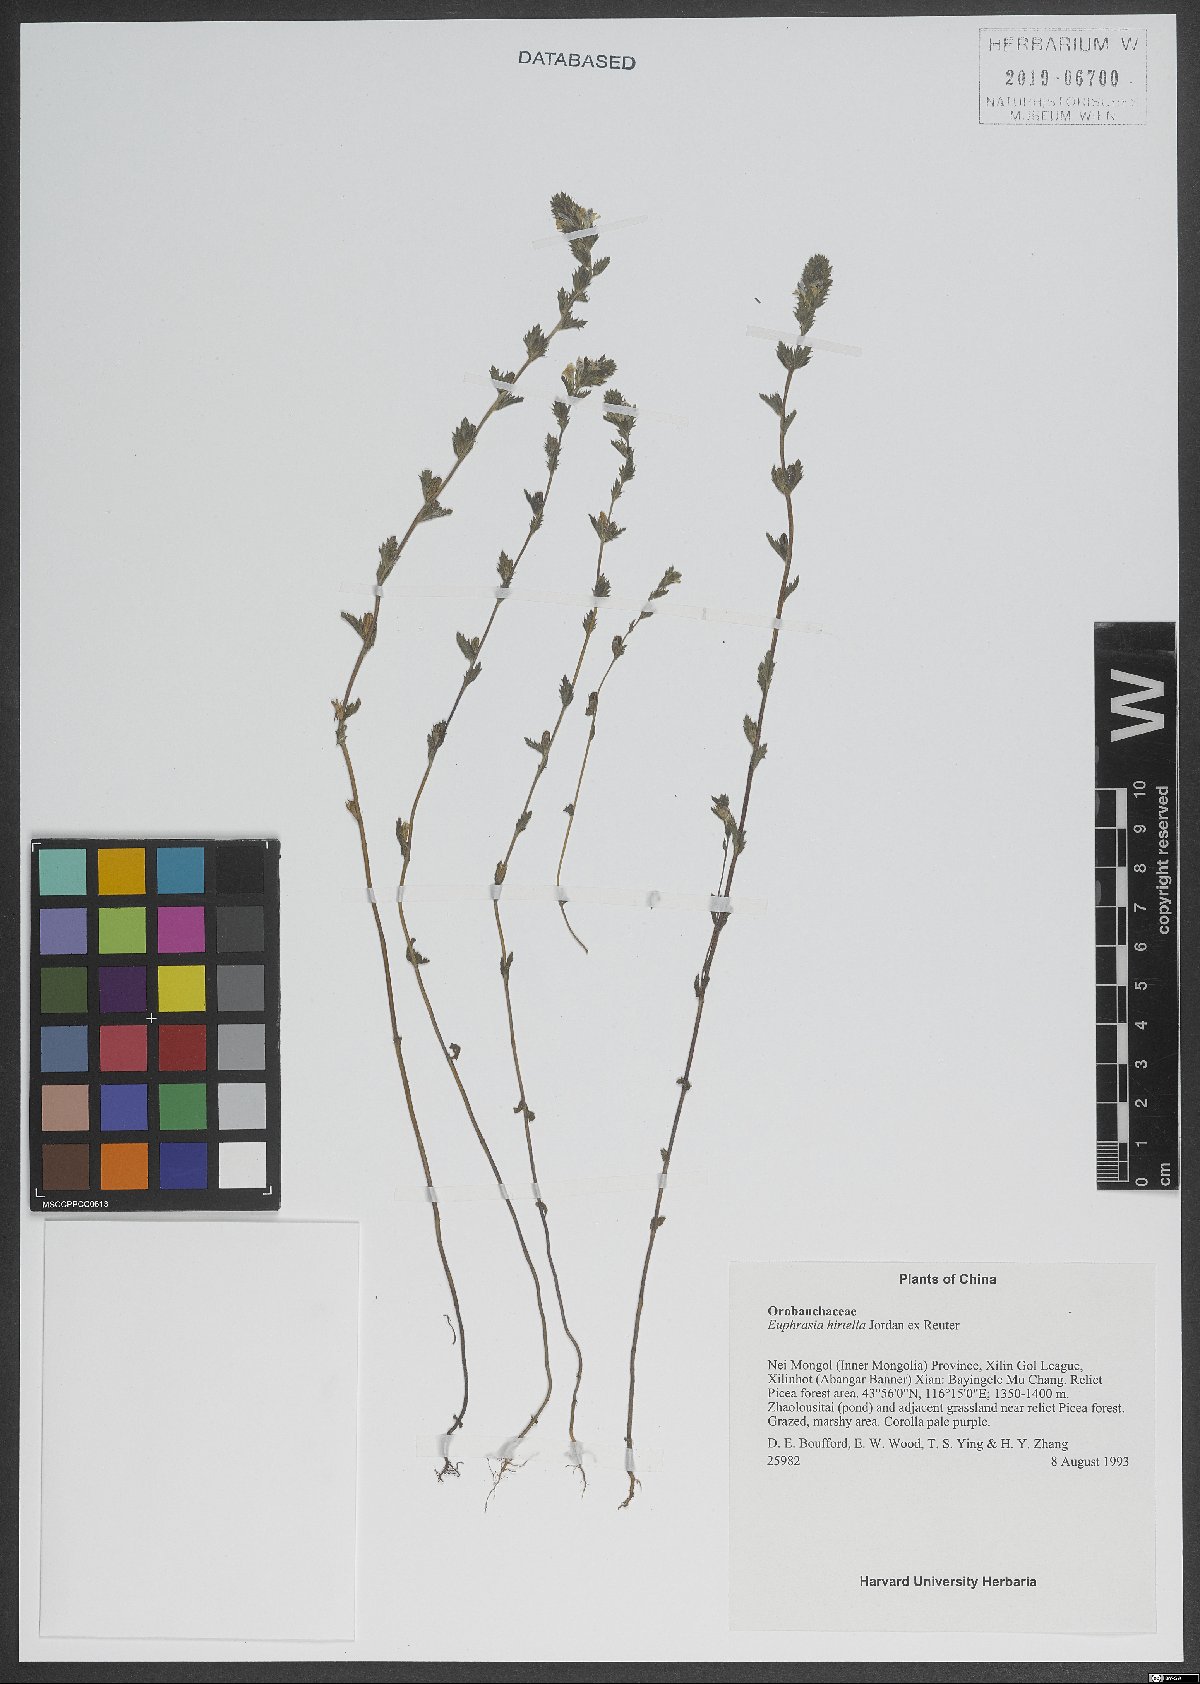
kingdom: Plantae
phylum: Tracheophyta
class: Magnoliopsida
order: Lamiales
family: Orobanchaceae
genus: Euphrasia
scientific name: Euphrasia hirtella
